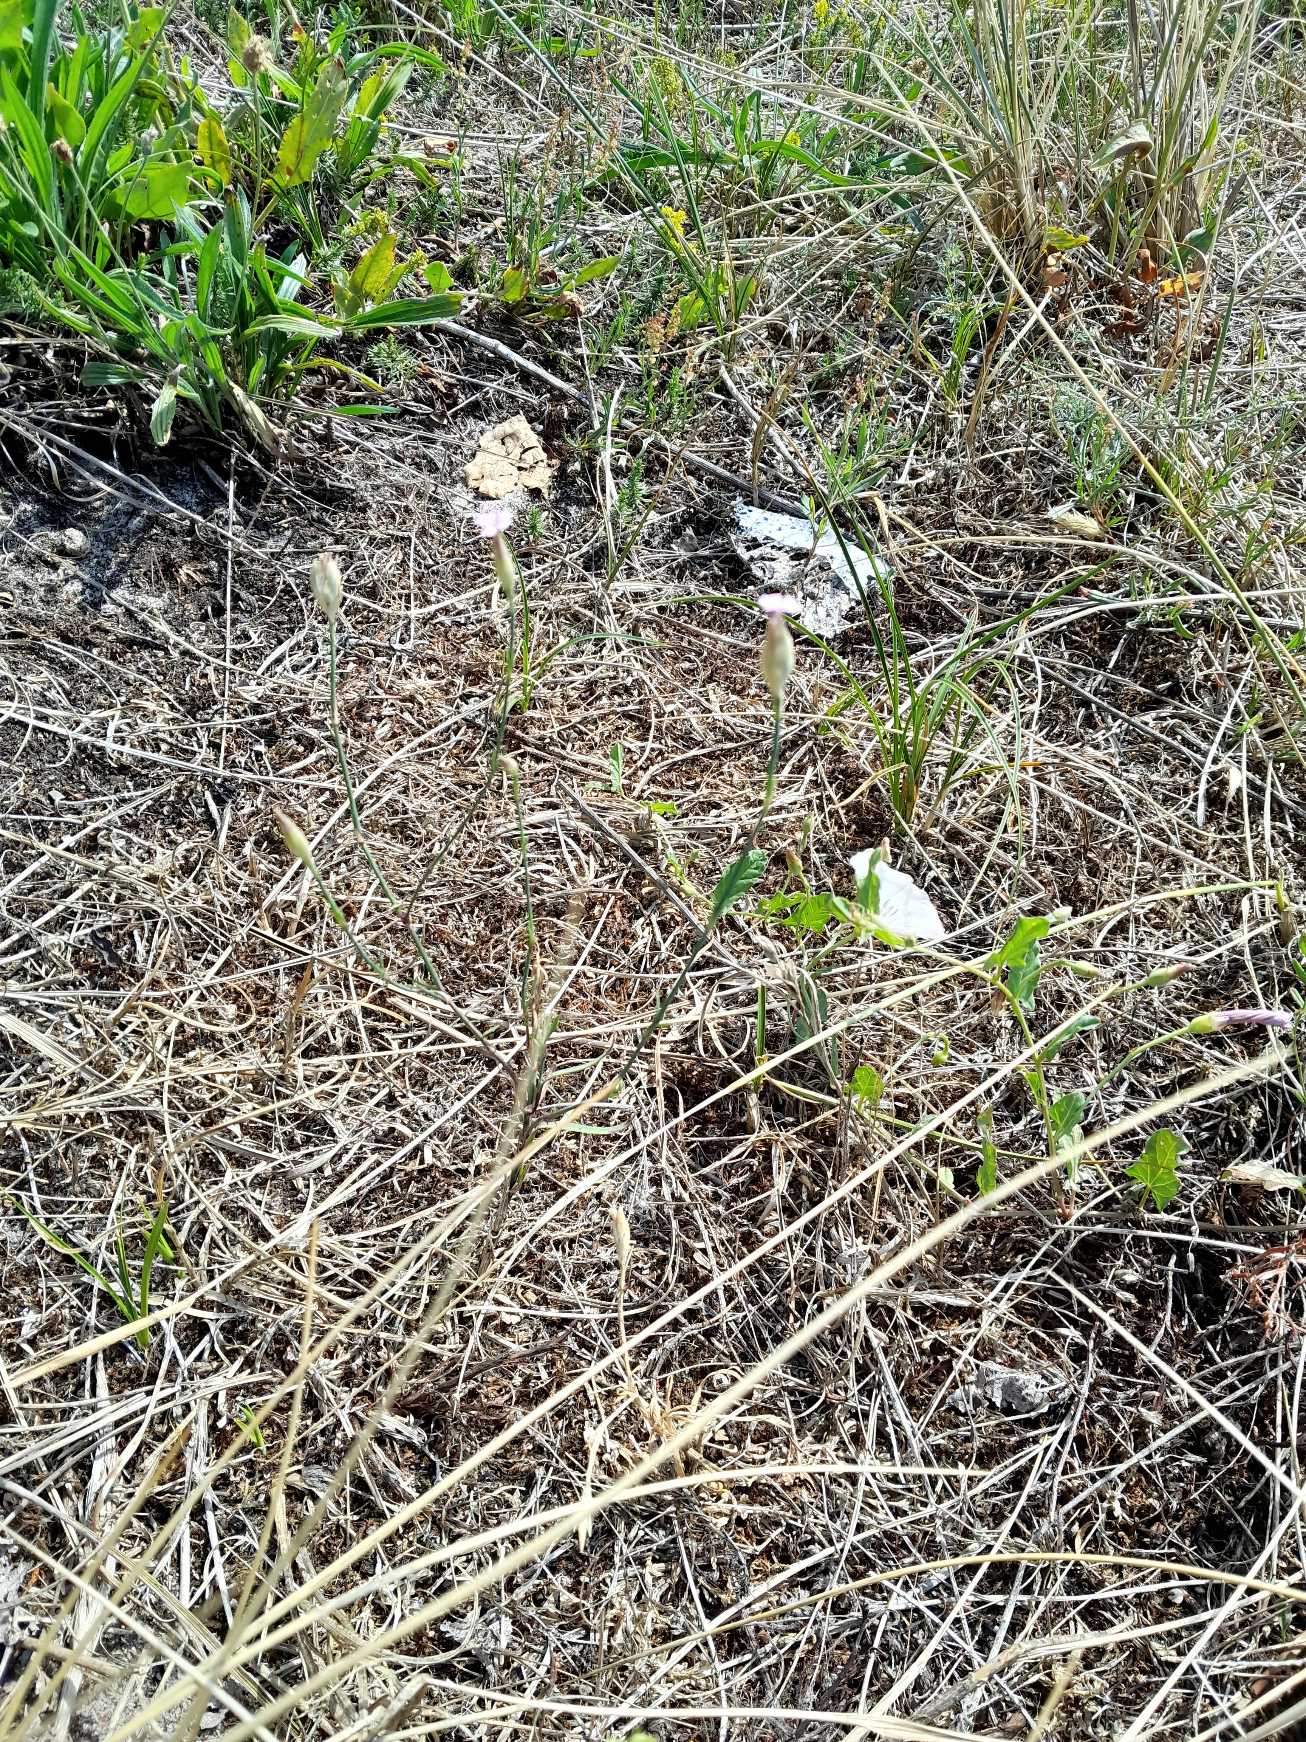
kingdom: Plantae
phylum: Tracheophyta
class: Magnoliopsida
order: Caryophyllales
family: Caryophyllaceae
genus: Petrorhagia
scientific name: Petrorhagia prolifera
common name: Knopnellike
